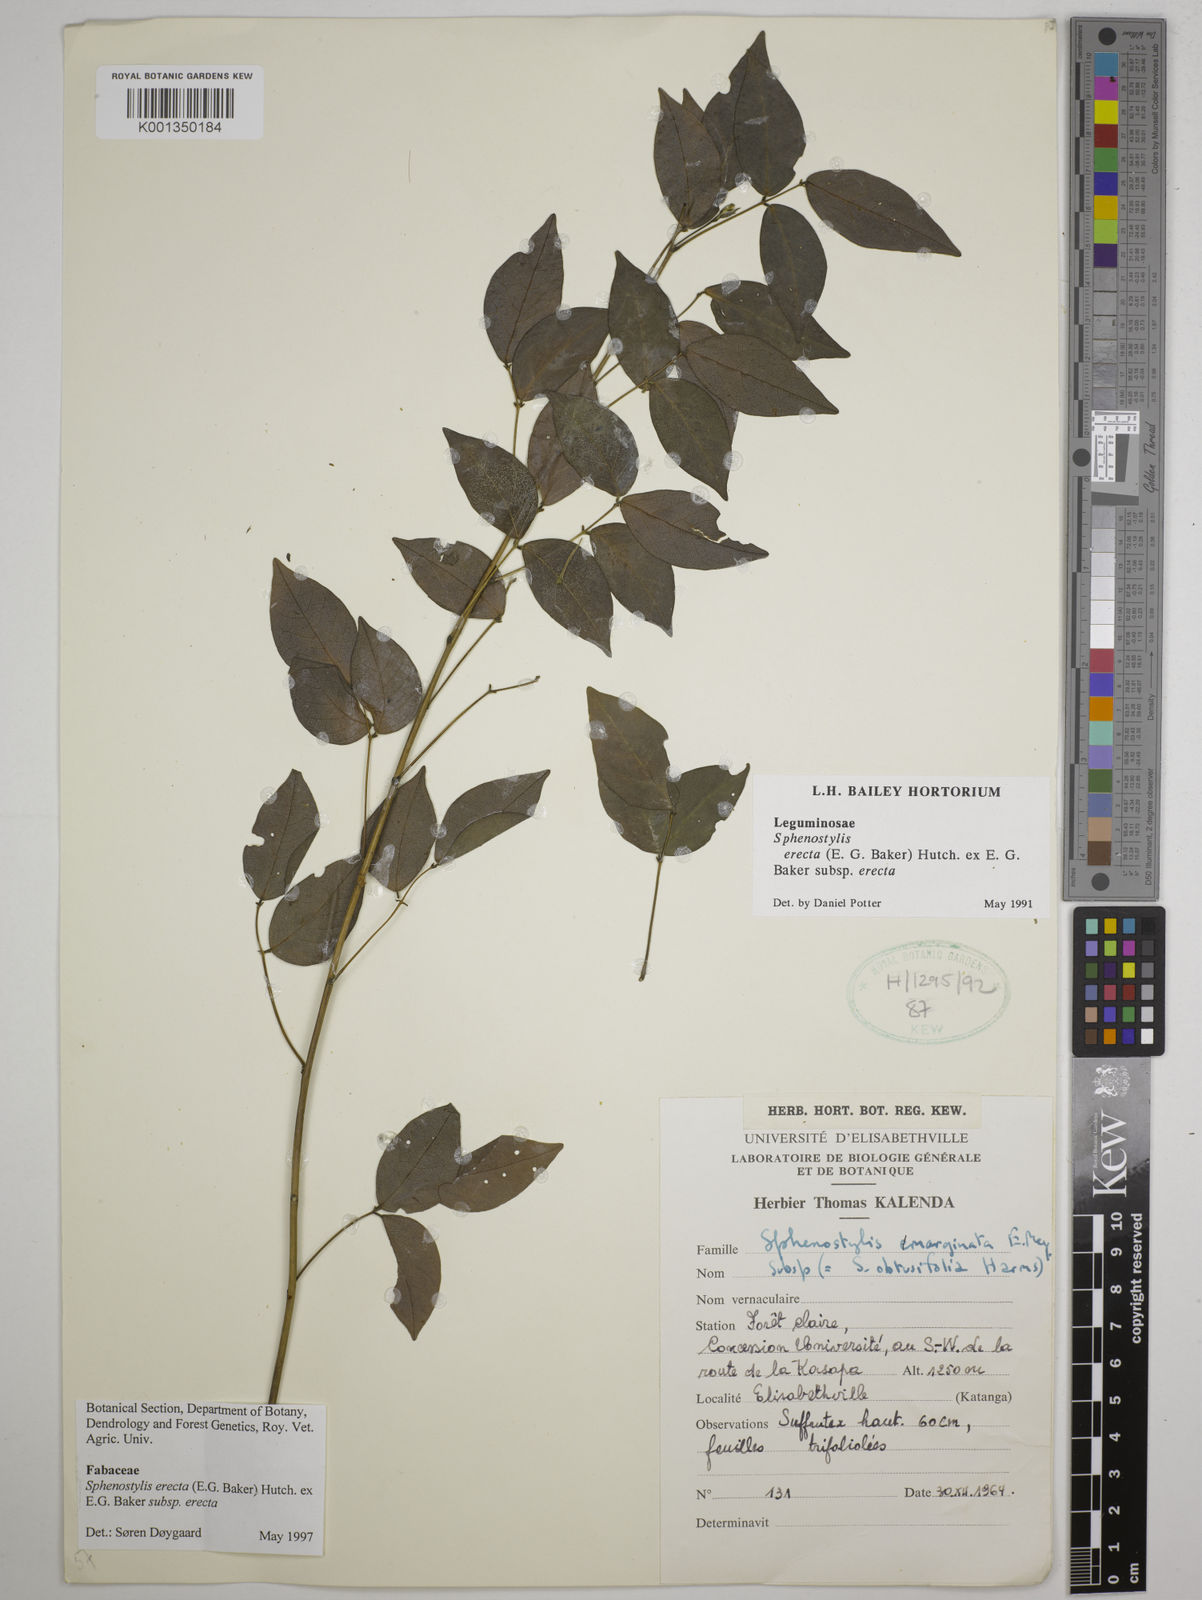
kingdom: Plantae
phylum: Tracheophyta
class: Magnoliopsida
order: Fabales
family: Fabaceae
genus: Sphenostylis
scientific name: Sphenostylis erecta
